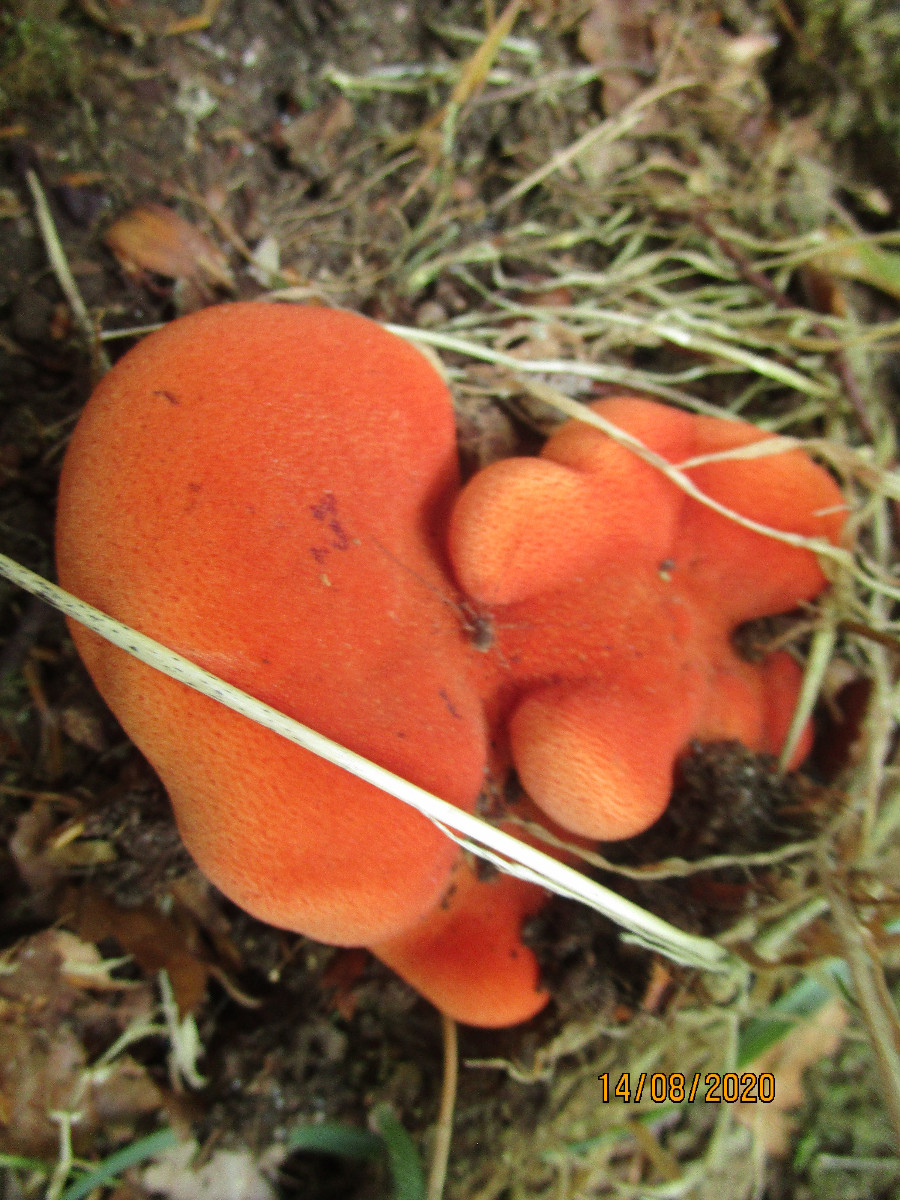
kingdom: Fungi
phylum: Basidiomycota
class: Agaricomycetes
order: Agaricales
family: Fistulinaceae
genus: Fistulina
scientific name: Fistulina hepatica
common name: oksetunge
